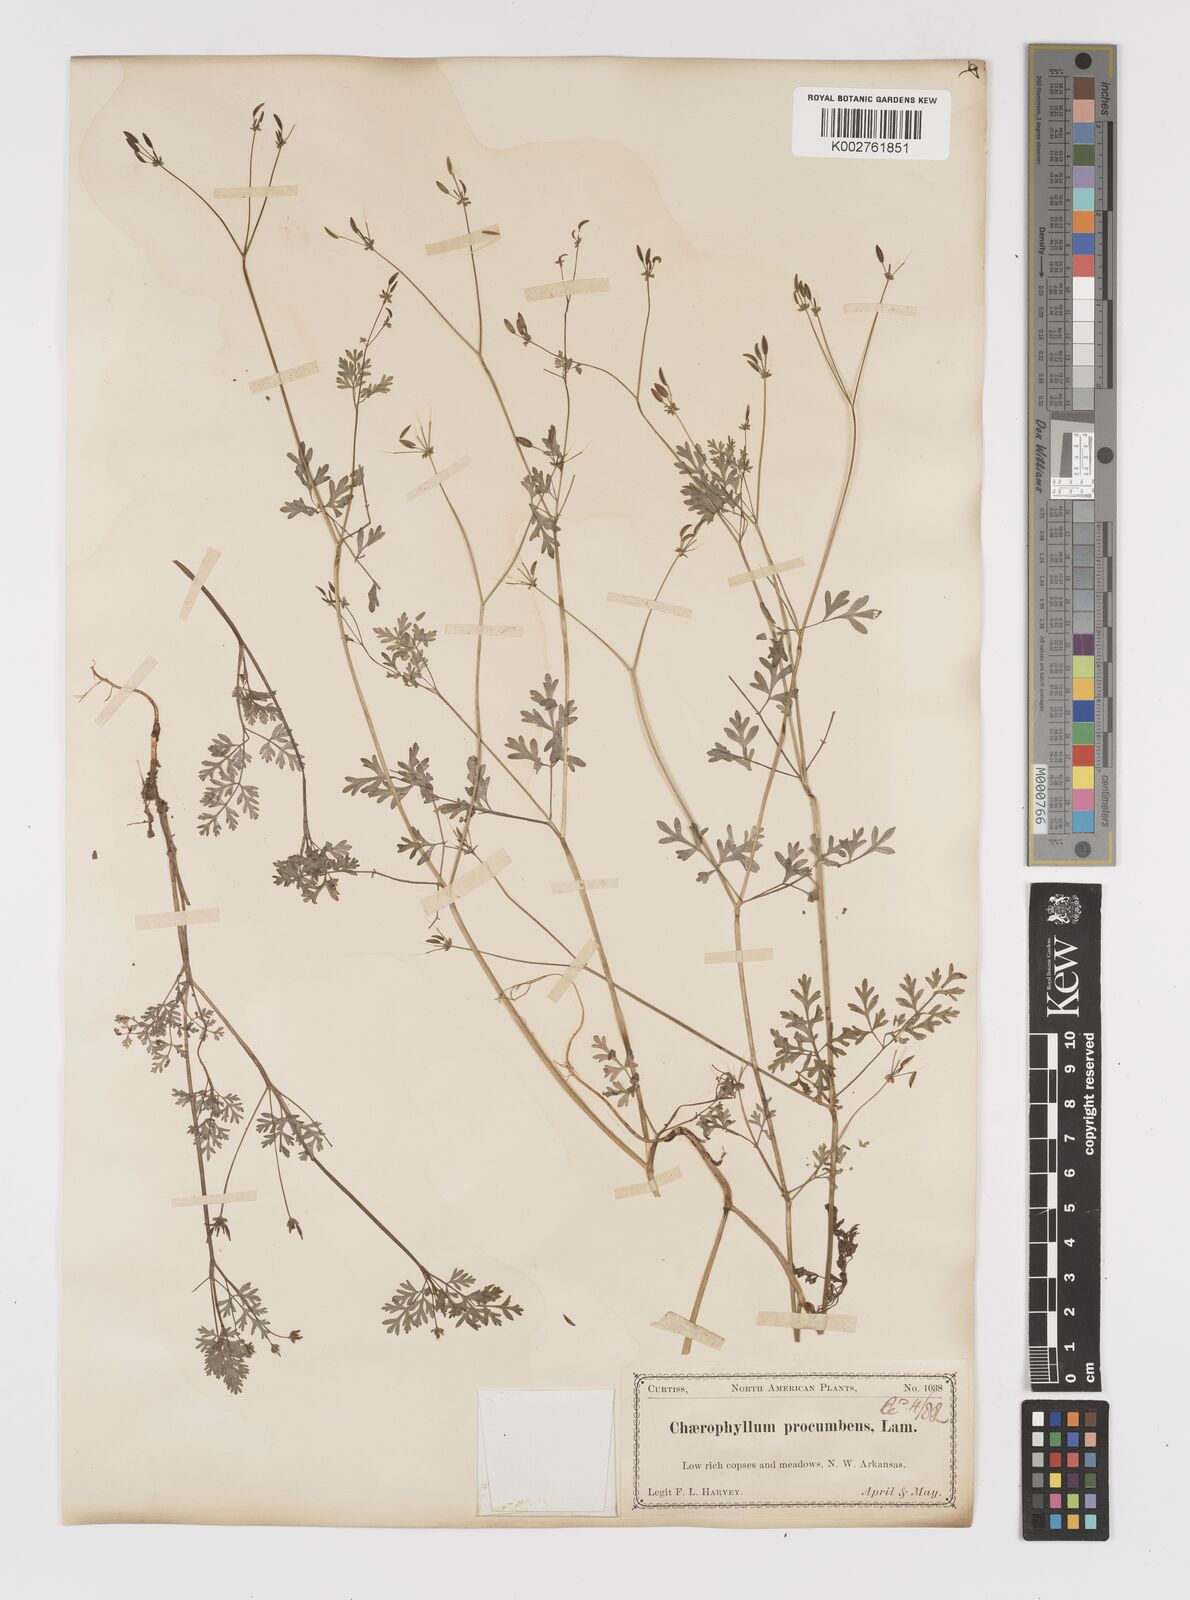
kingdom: Plantae
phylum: Tracheophyta
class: Magnoliopsida
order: Apiales
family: Apiaceae
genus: Chaerophyllum
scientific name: Chaerophyllum procumbens
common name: Spreading chervil
